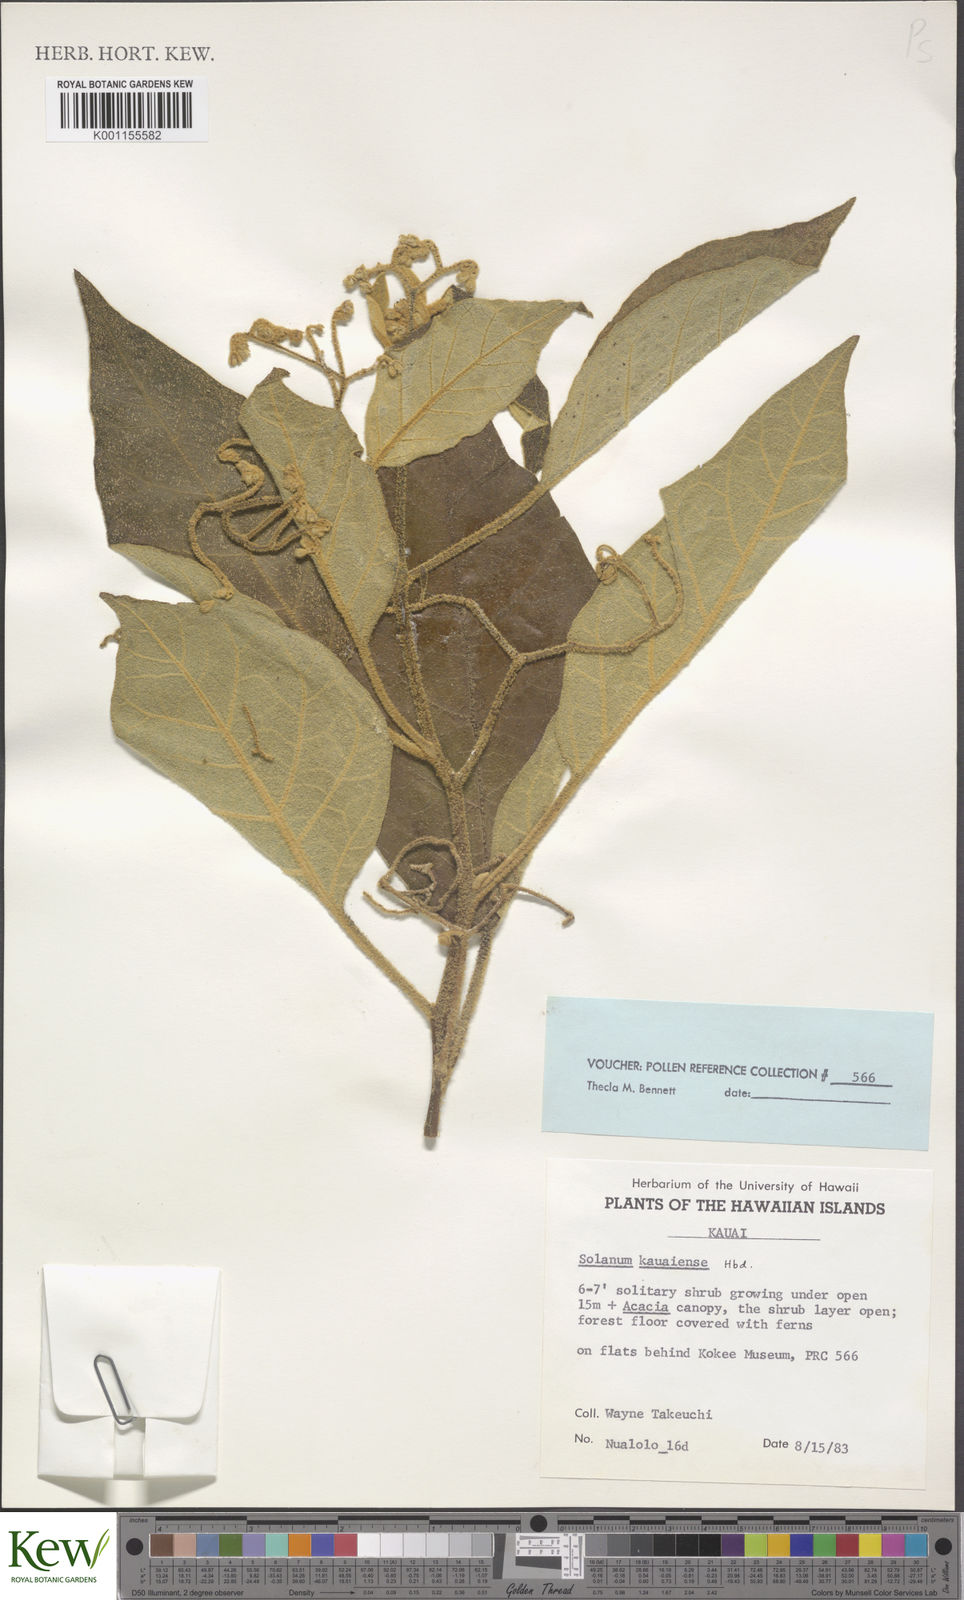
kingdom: Plantae
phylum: Tracheophyta
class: Magnoliopsida
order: Solanales
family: Solanaceae
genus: Solanum
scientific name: Solanum sandwicense
